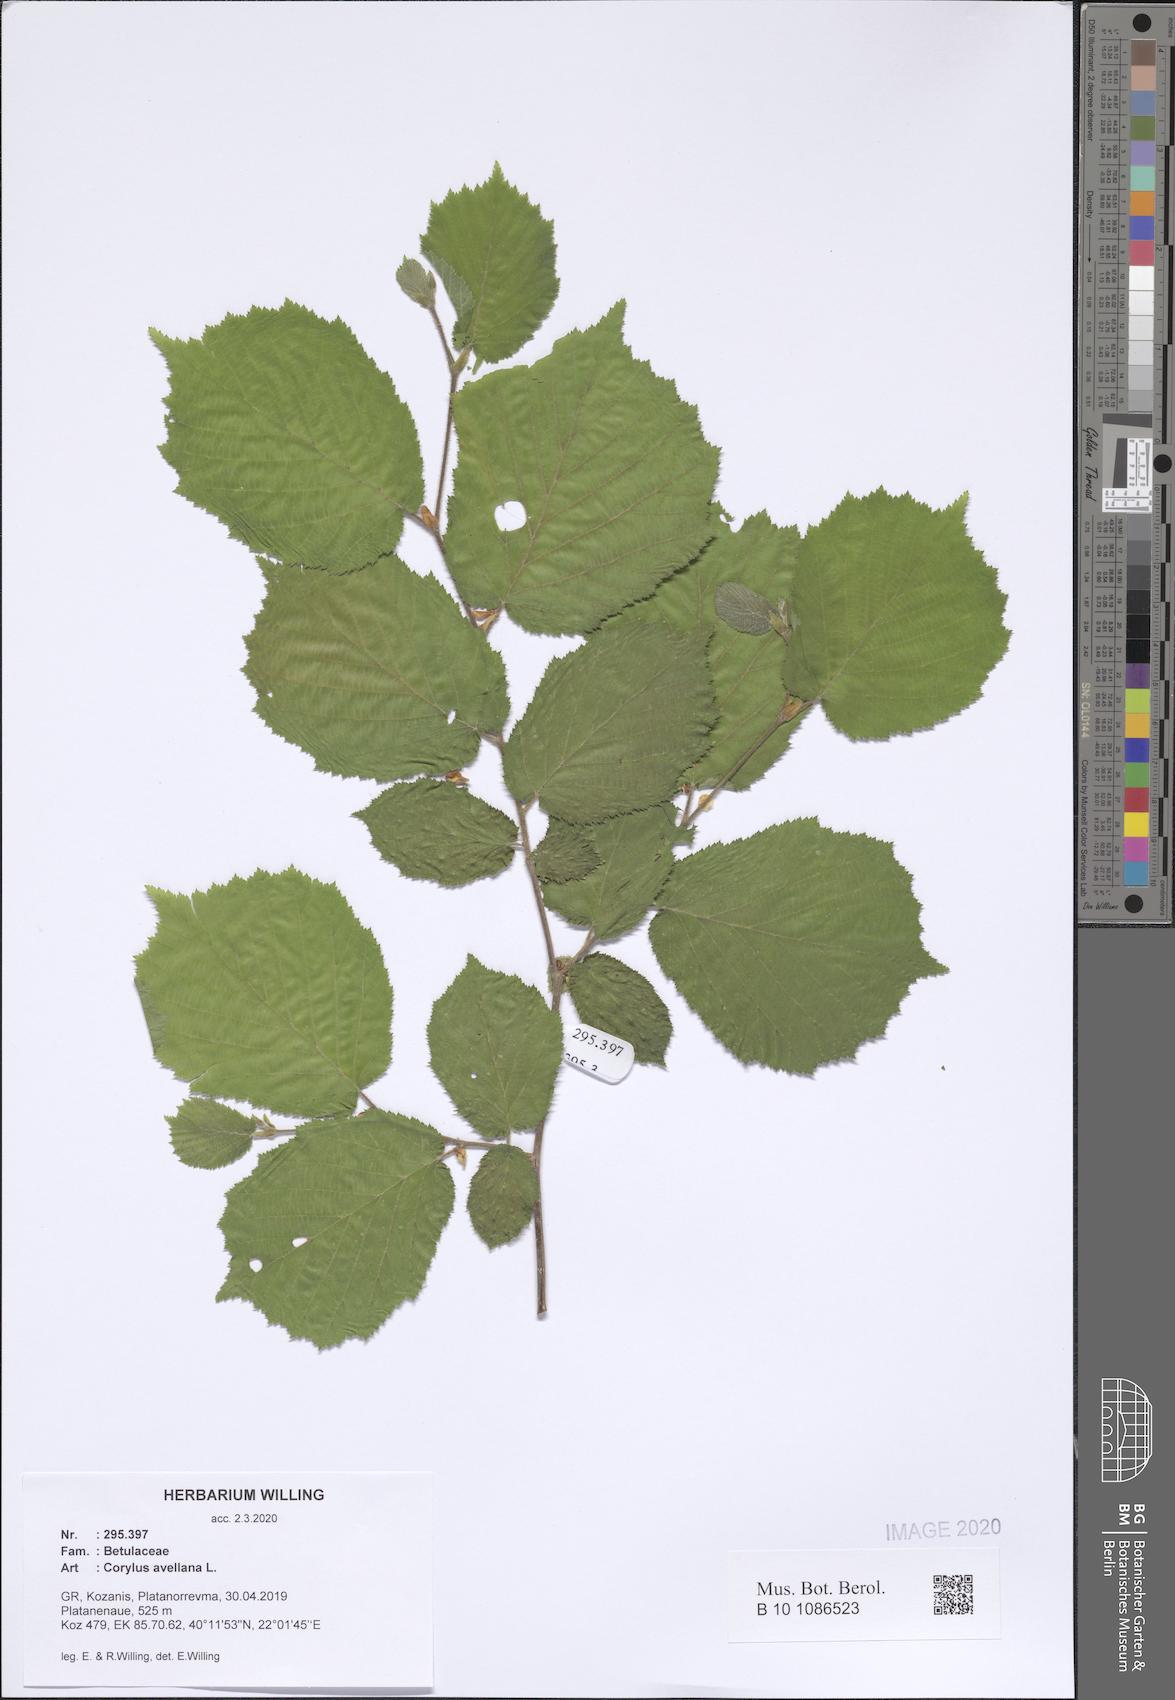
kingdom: Plantae
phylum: Tracheophyta
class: Magnoliopsida
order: Fagales
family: Betulaceae
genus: Corylus
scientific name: Corylus avellana
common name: European hazel
